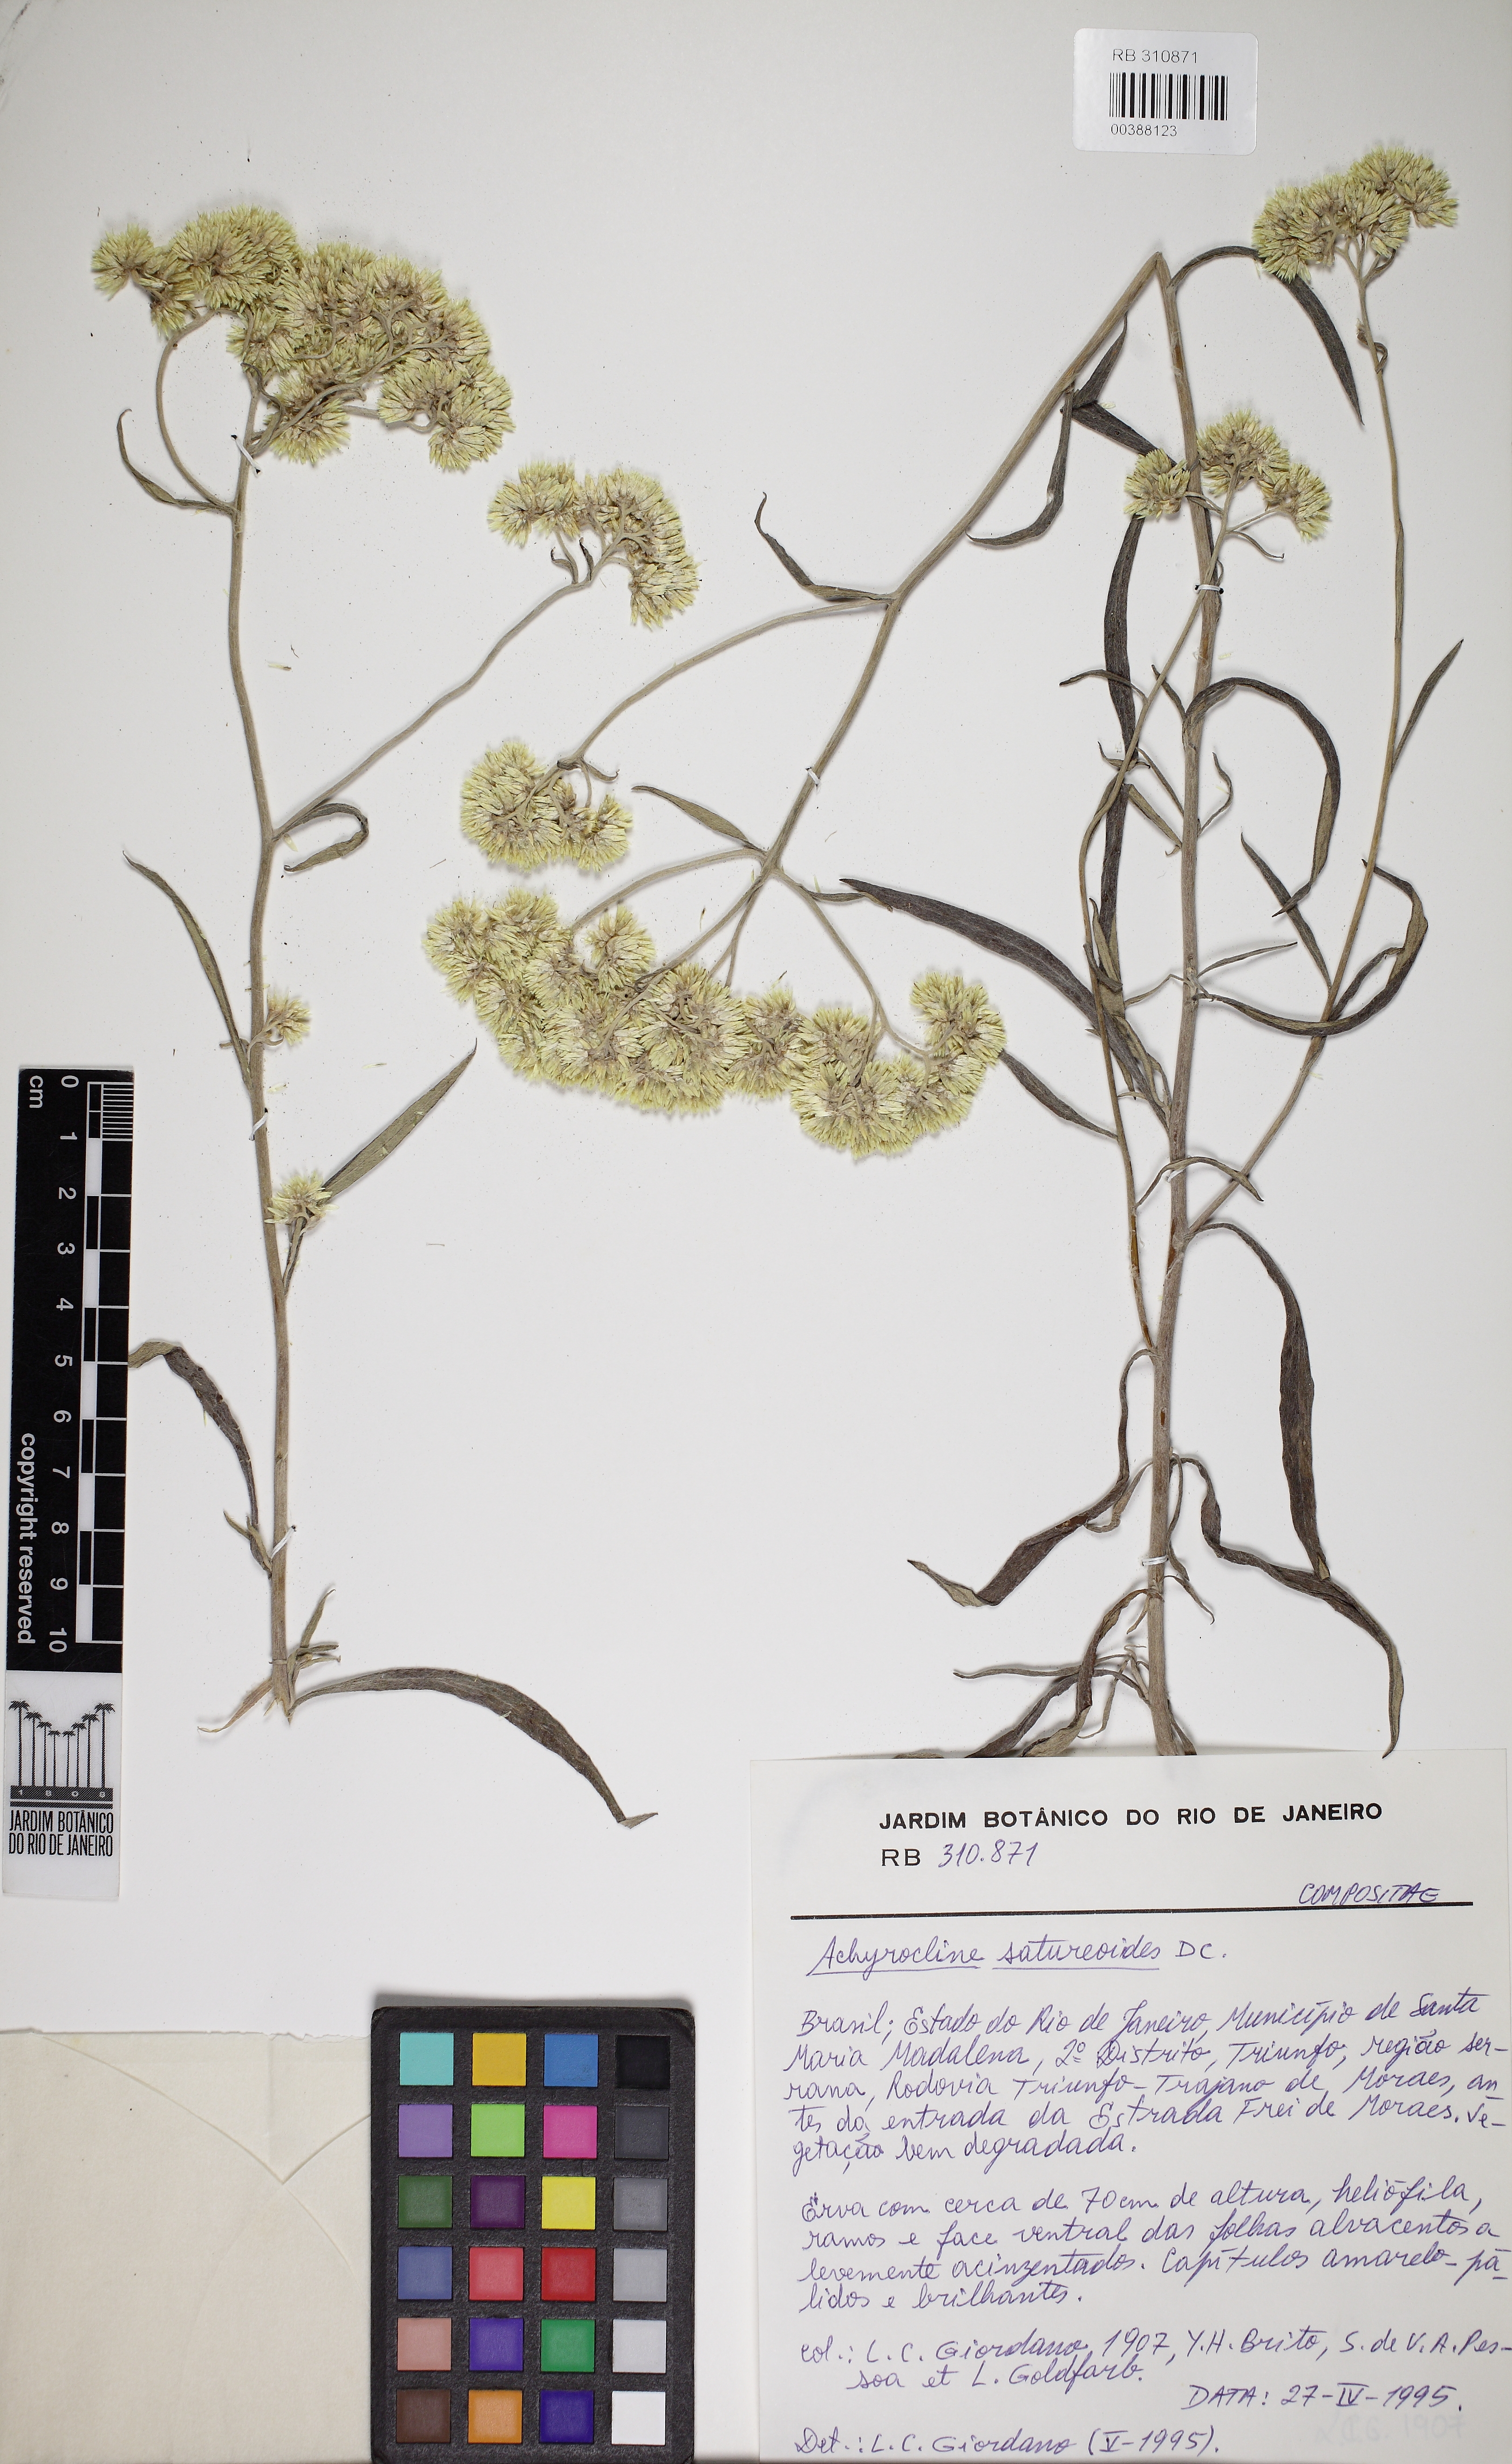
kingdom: Plantae
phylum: Tracheophyta
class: Magnoliopsida
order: Asterales
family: Asteraceae
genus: Achyrocline
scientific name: Achyrocline satureioides
